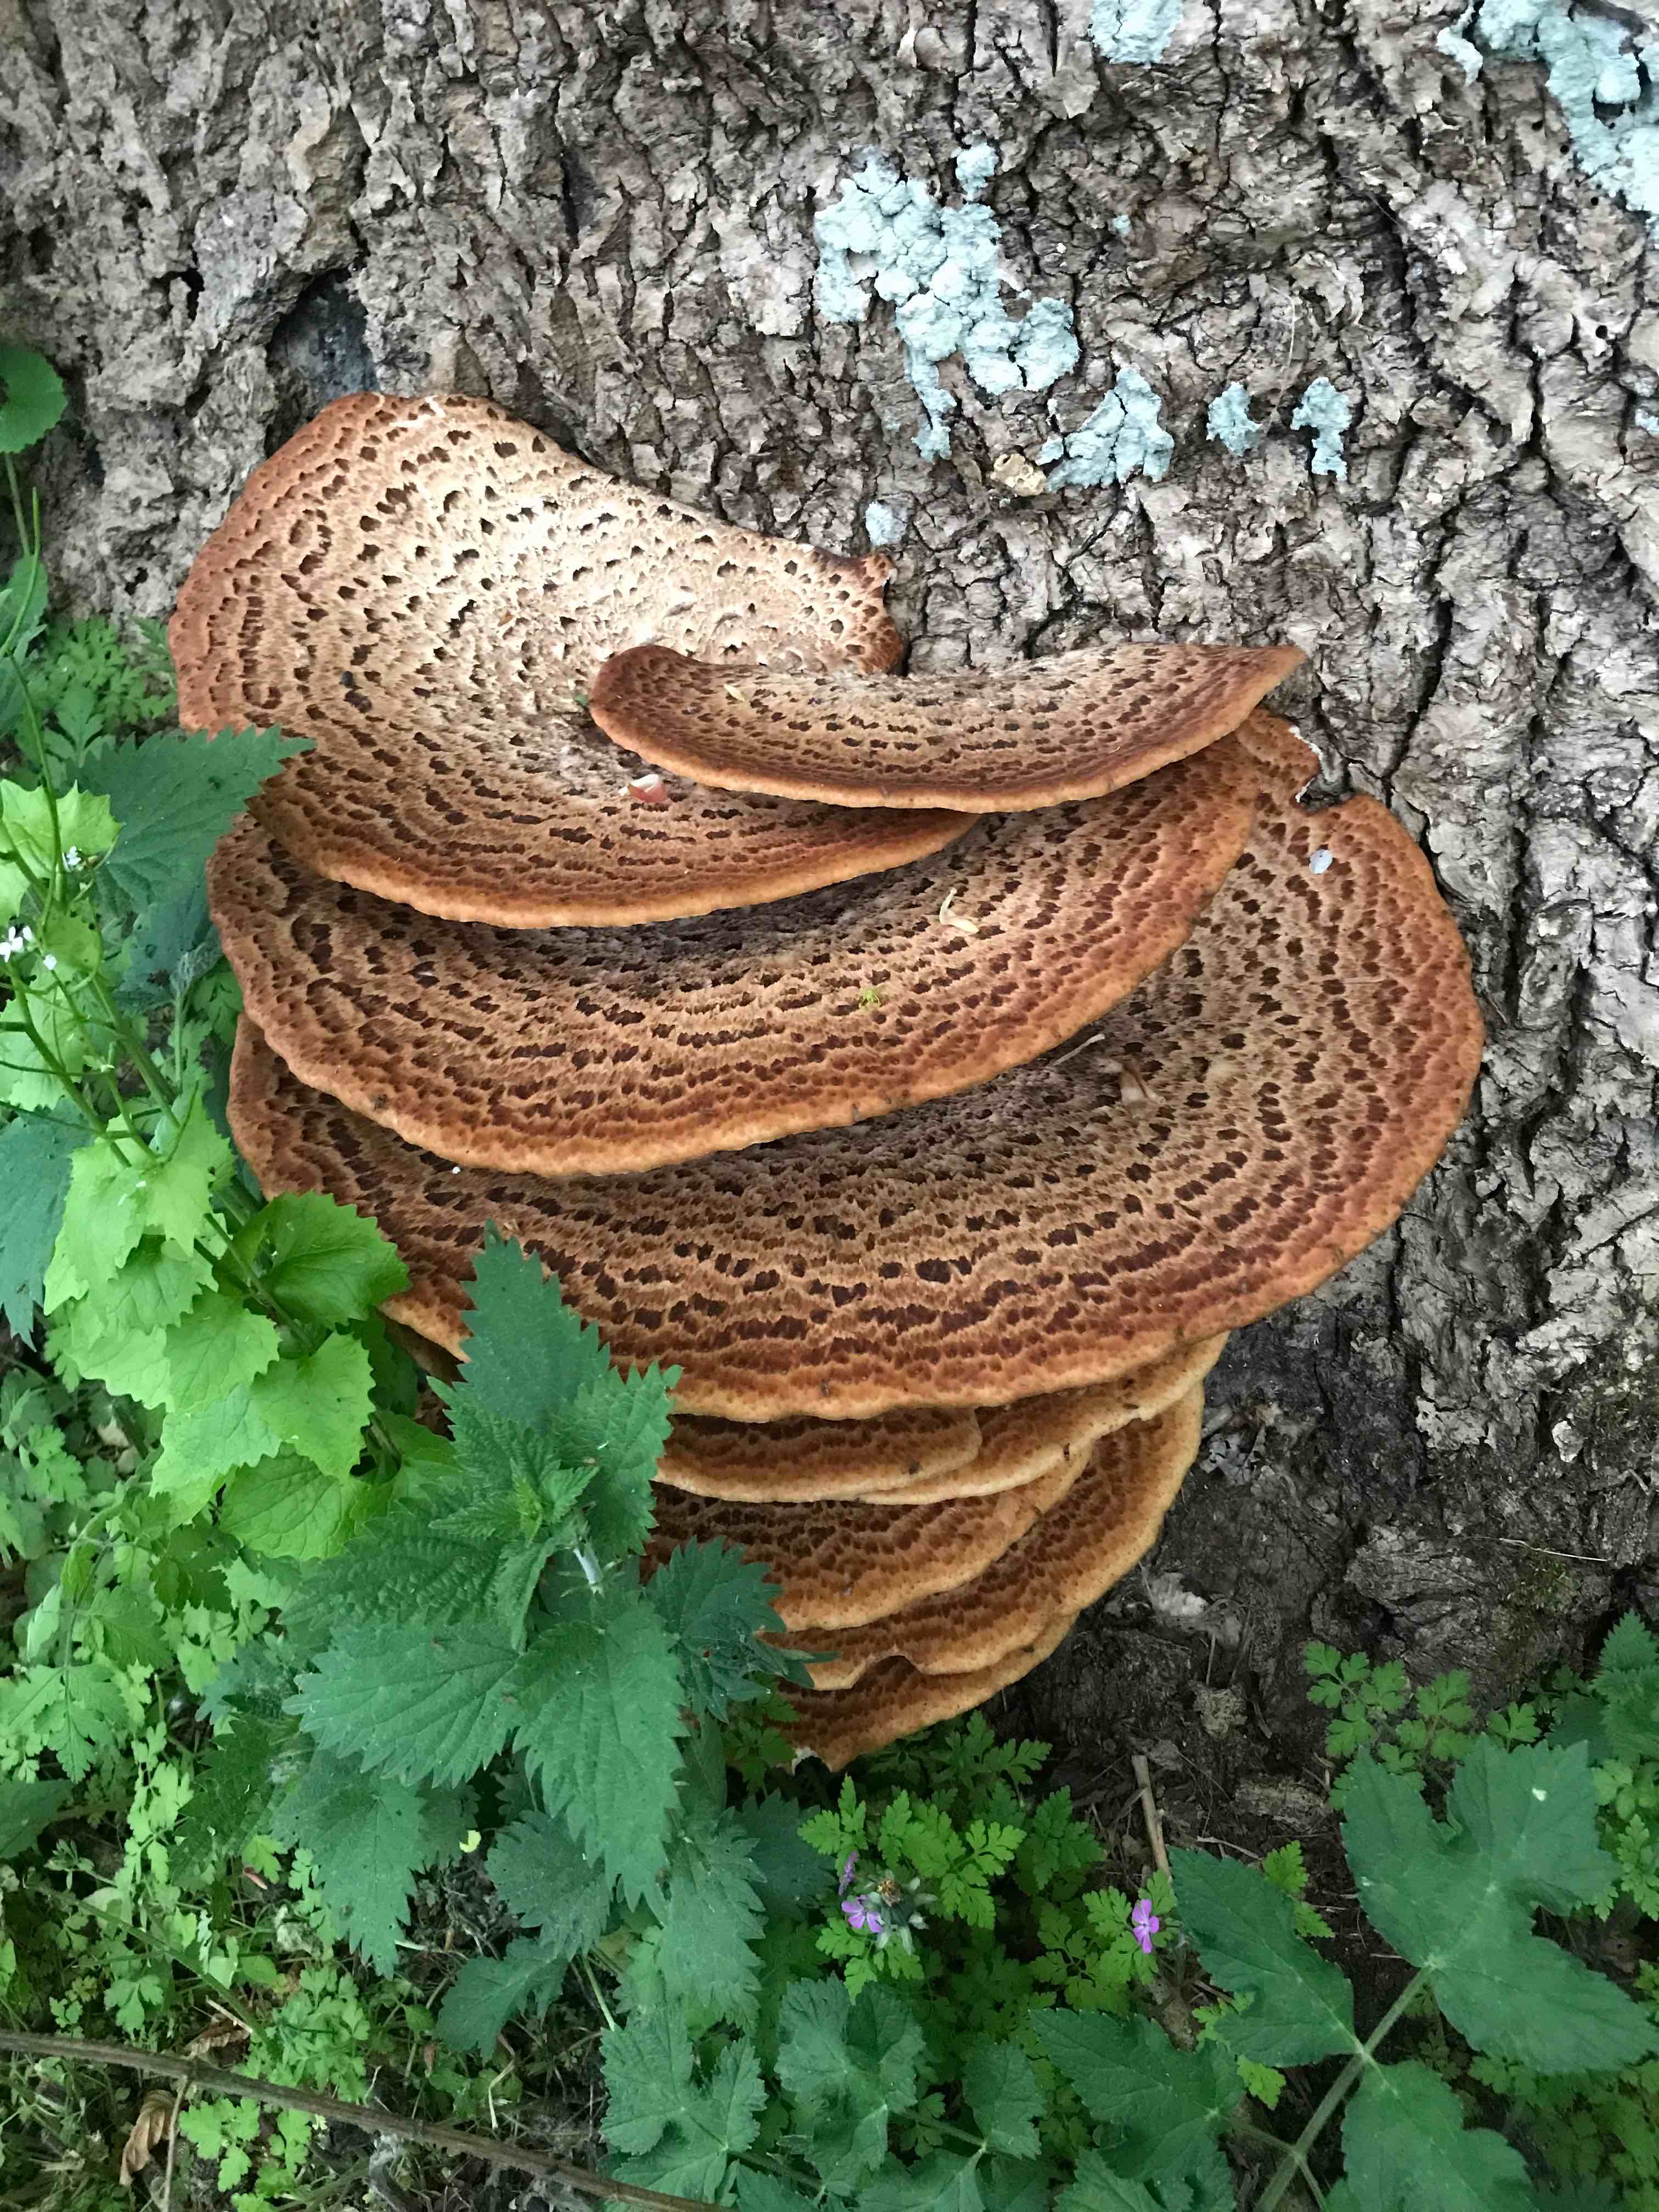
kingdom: Fungi
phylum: Basidiomycota
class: Agaricomycetes
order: Polyporales
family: Polyporaceae
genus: Cerioporus
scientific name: Cerioporus squamosus
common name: skællet stilkporesvamp
